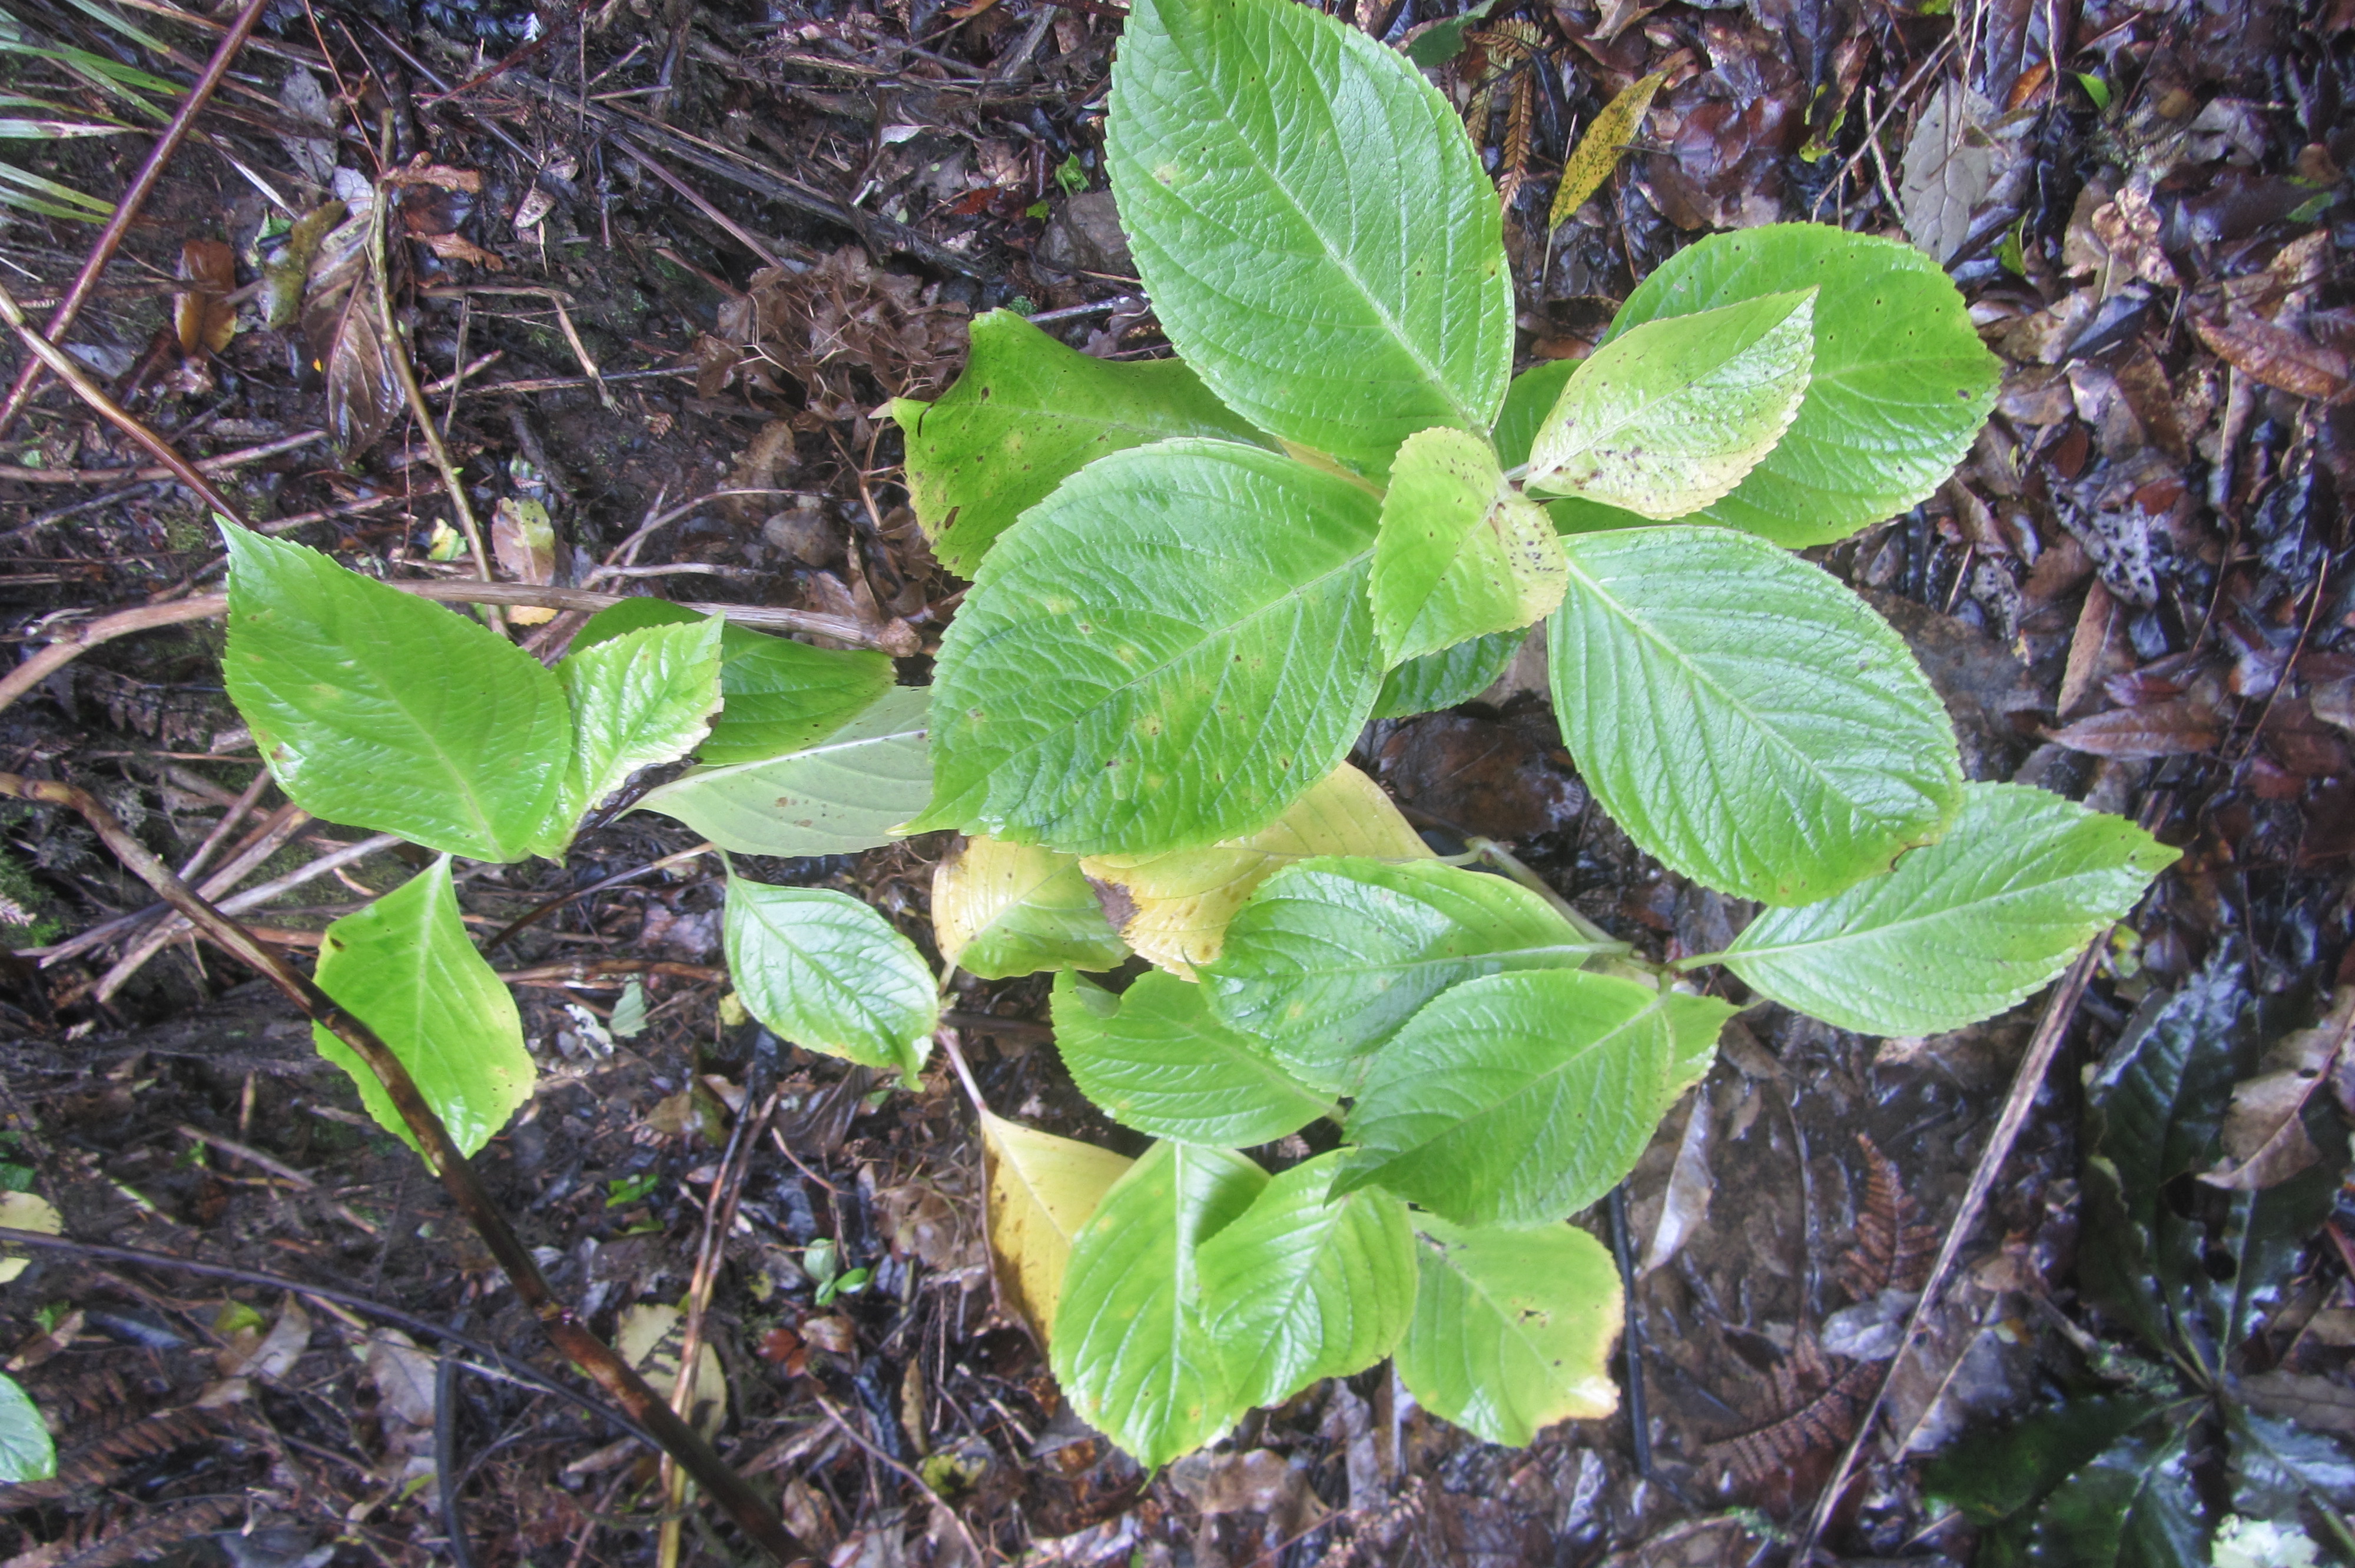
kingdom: Plantae
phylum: Tracheophyta
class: Magnoliopsida
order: Cornales
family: Hydrangeaceae
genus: Hydrangea
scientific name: Hydrangea macrophylla
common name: Hydrangea
